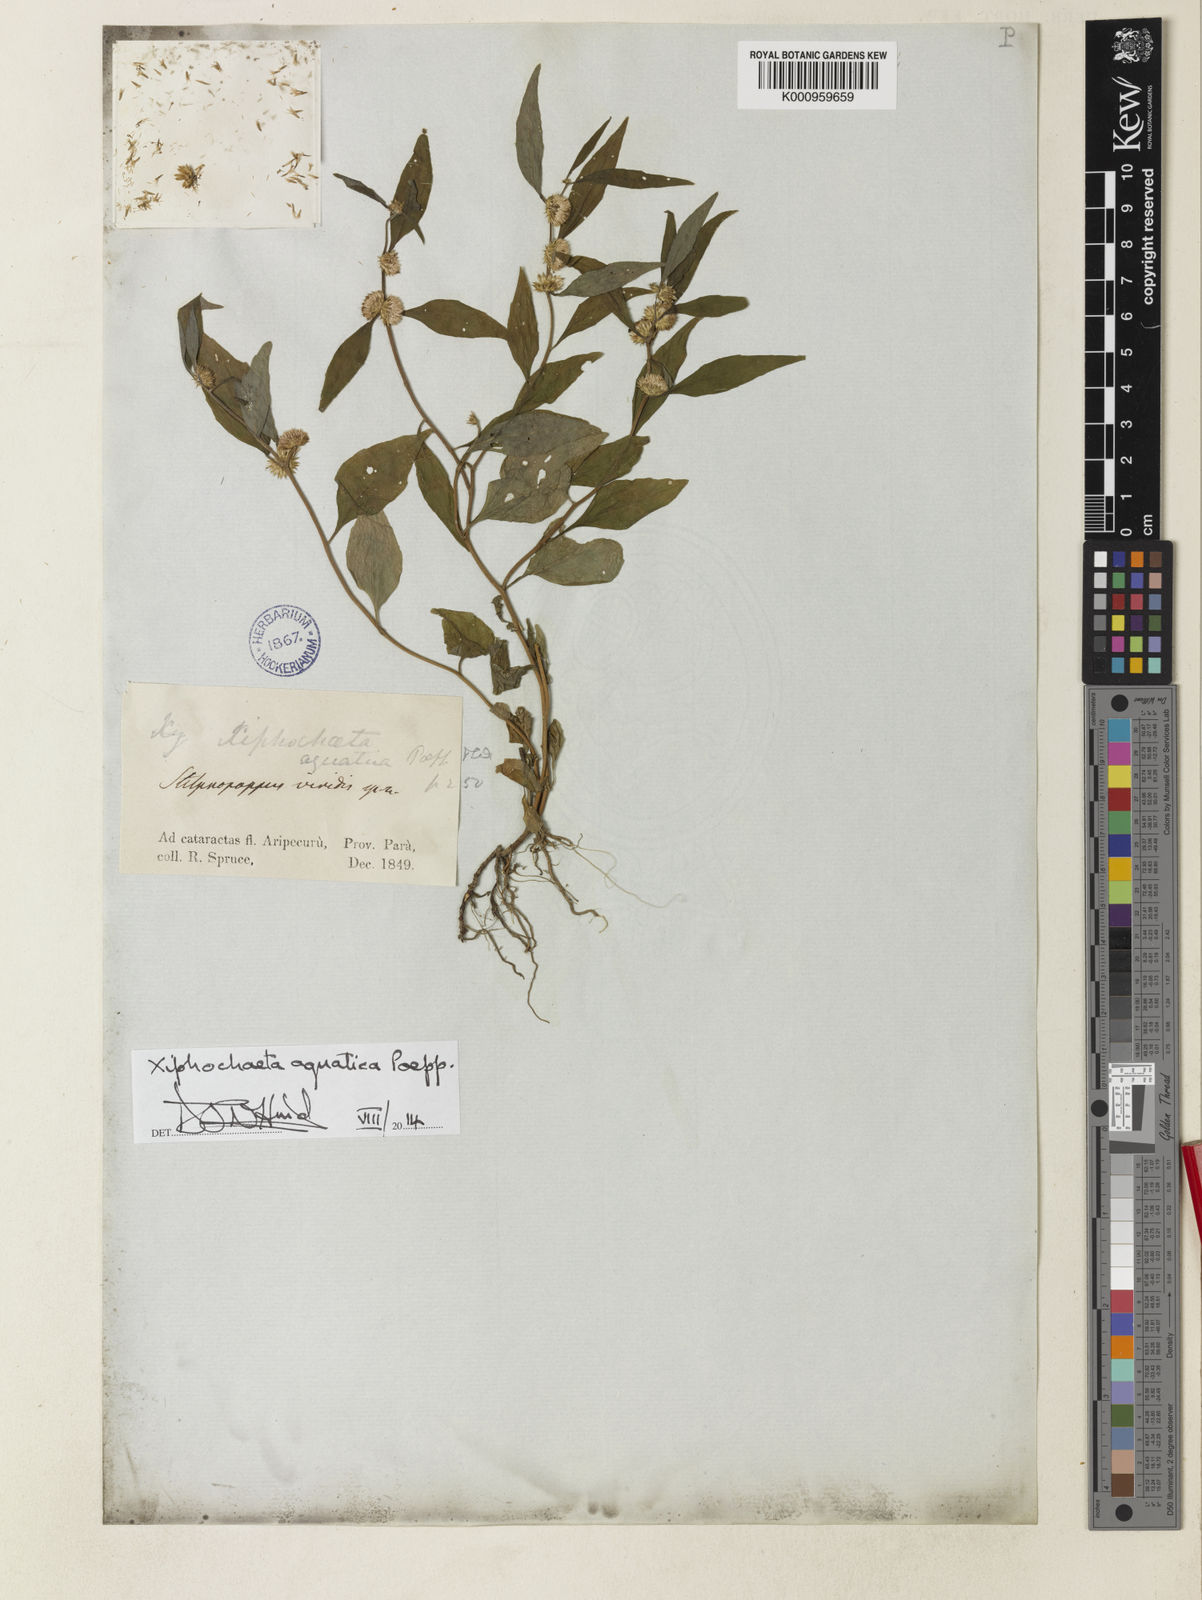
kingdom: Plantae
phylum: Tracheophyta
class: Magnoliopsida
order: Asterales
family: Asteraceae
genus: Xiphochaeta
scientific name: Xiphochaeta aquatica
